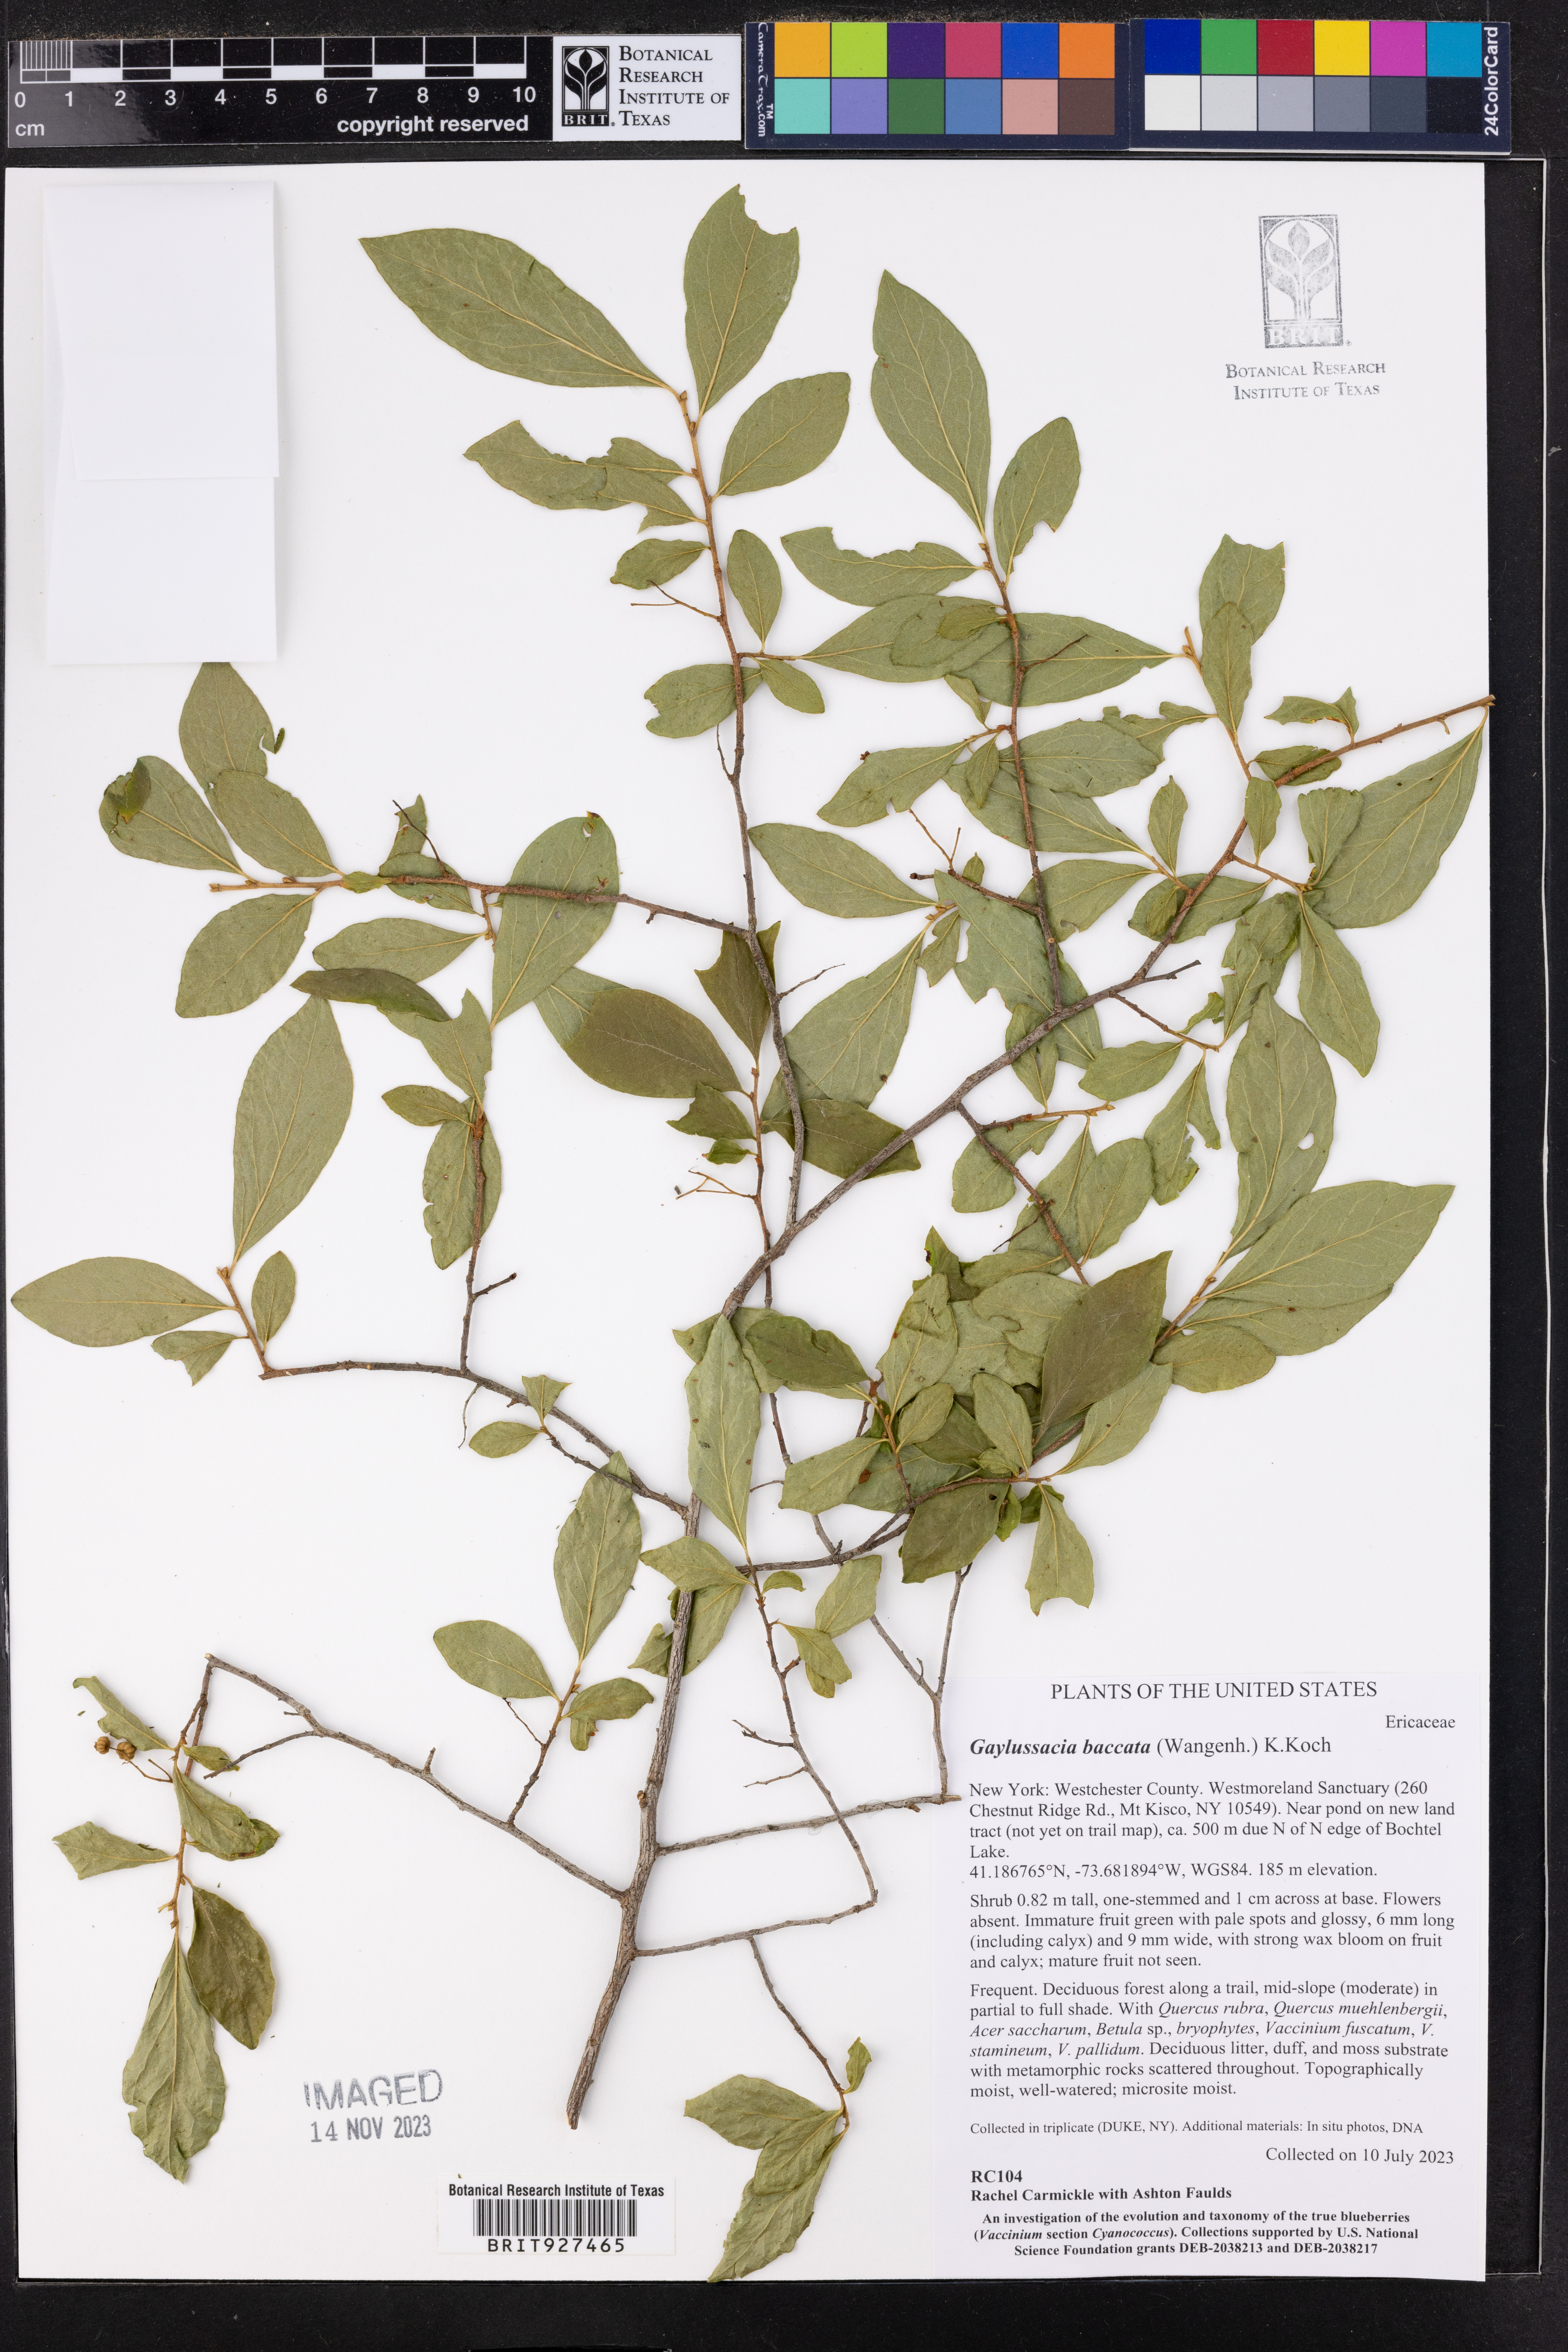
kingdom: Plantae
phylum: Tracheophyta
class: Magnoliopsida
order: Ericales
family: Ericaceae
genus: Gaylussacia
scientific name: Gaylussacia baccata
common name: Black huckleberry
